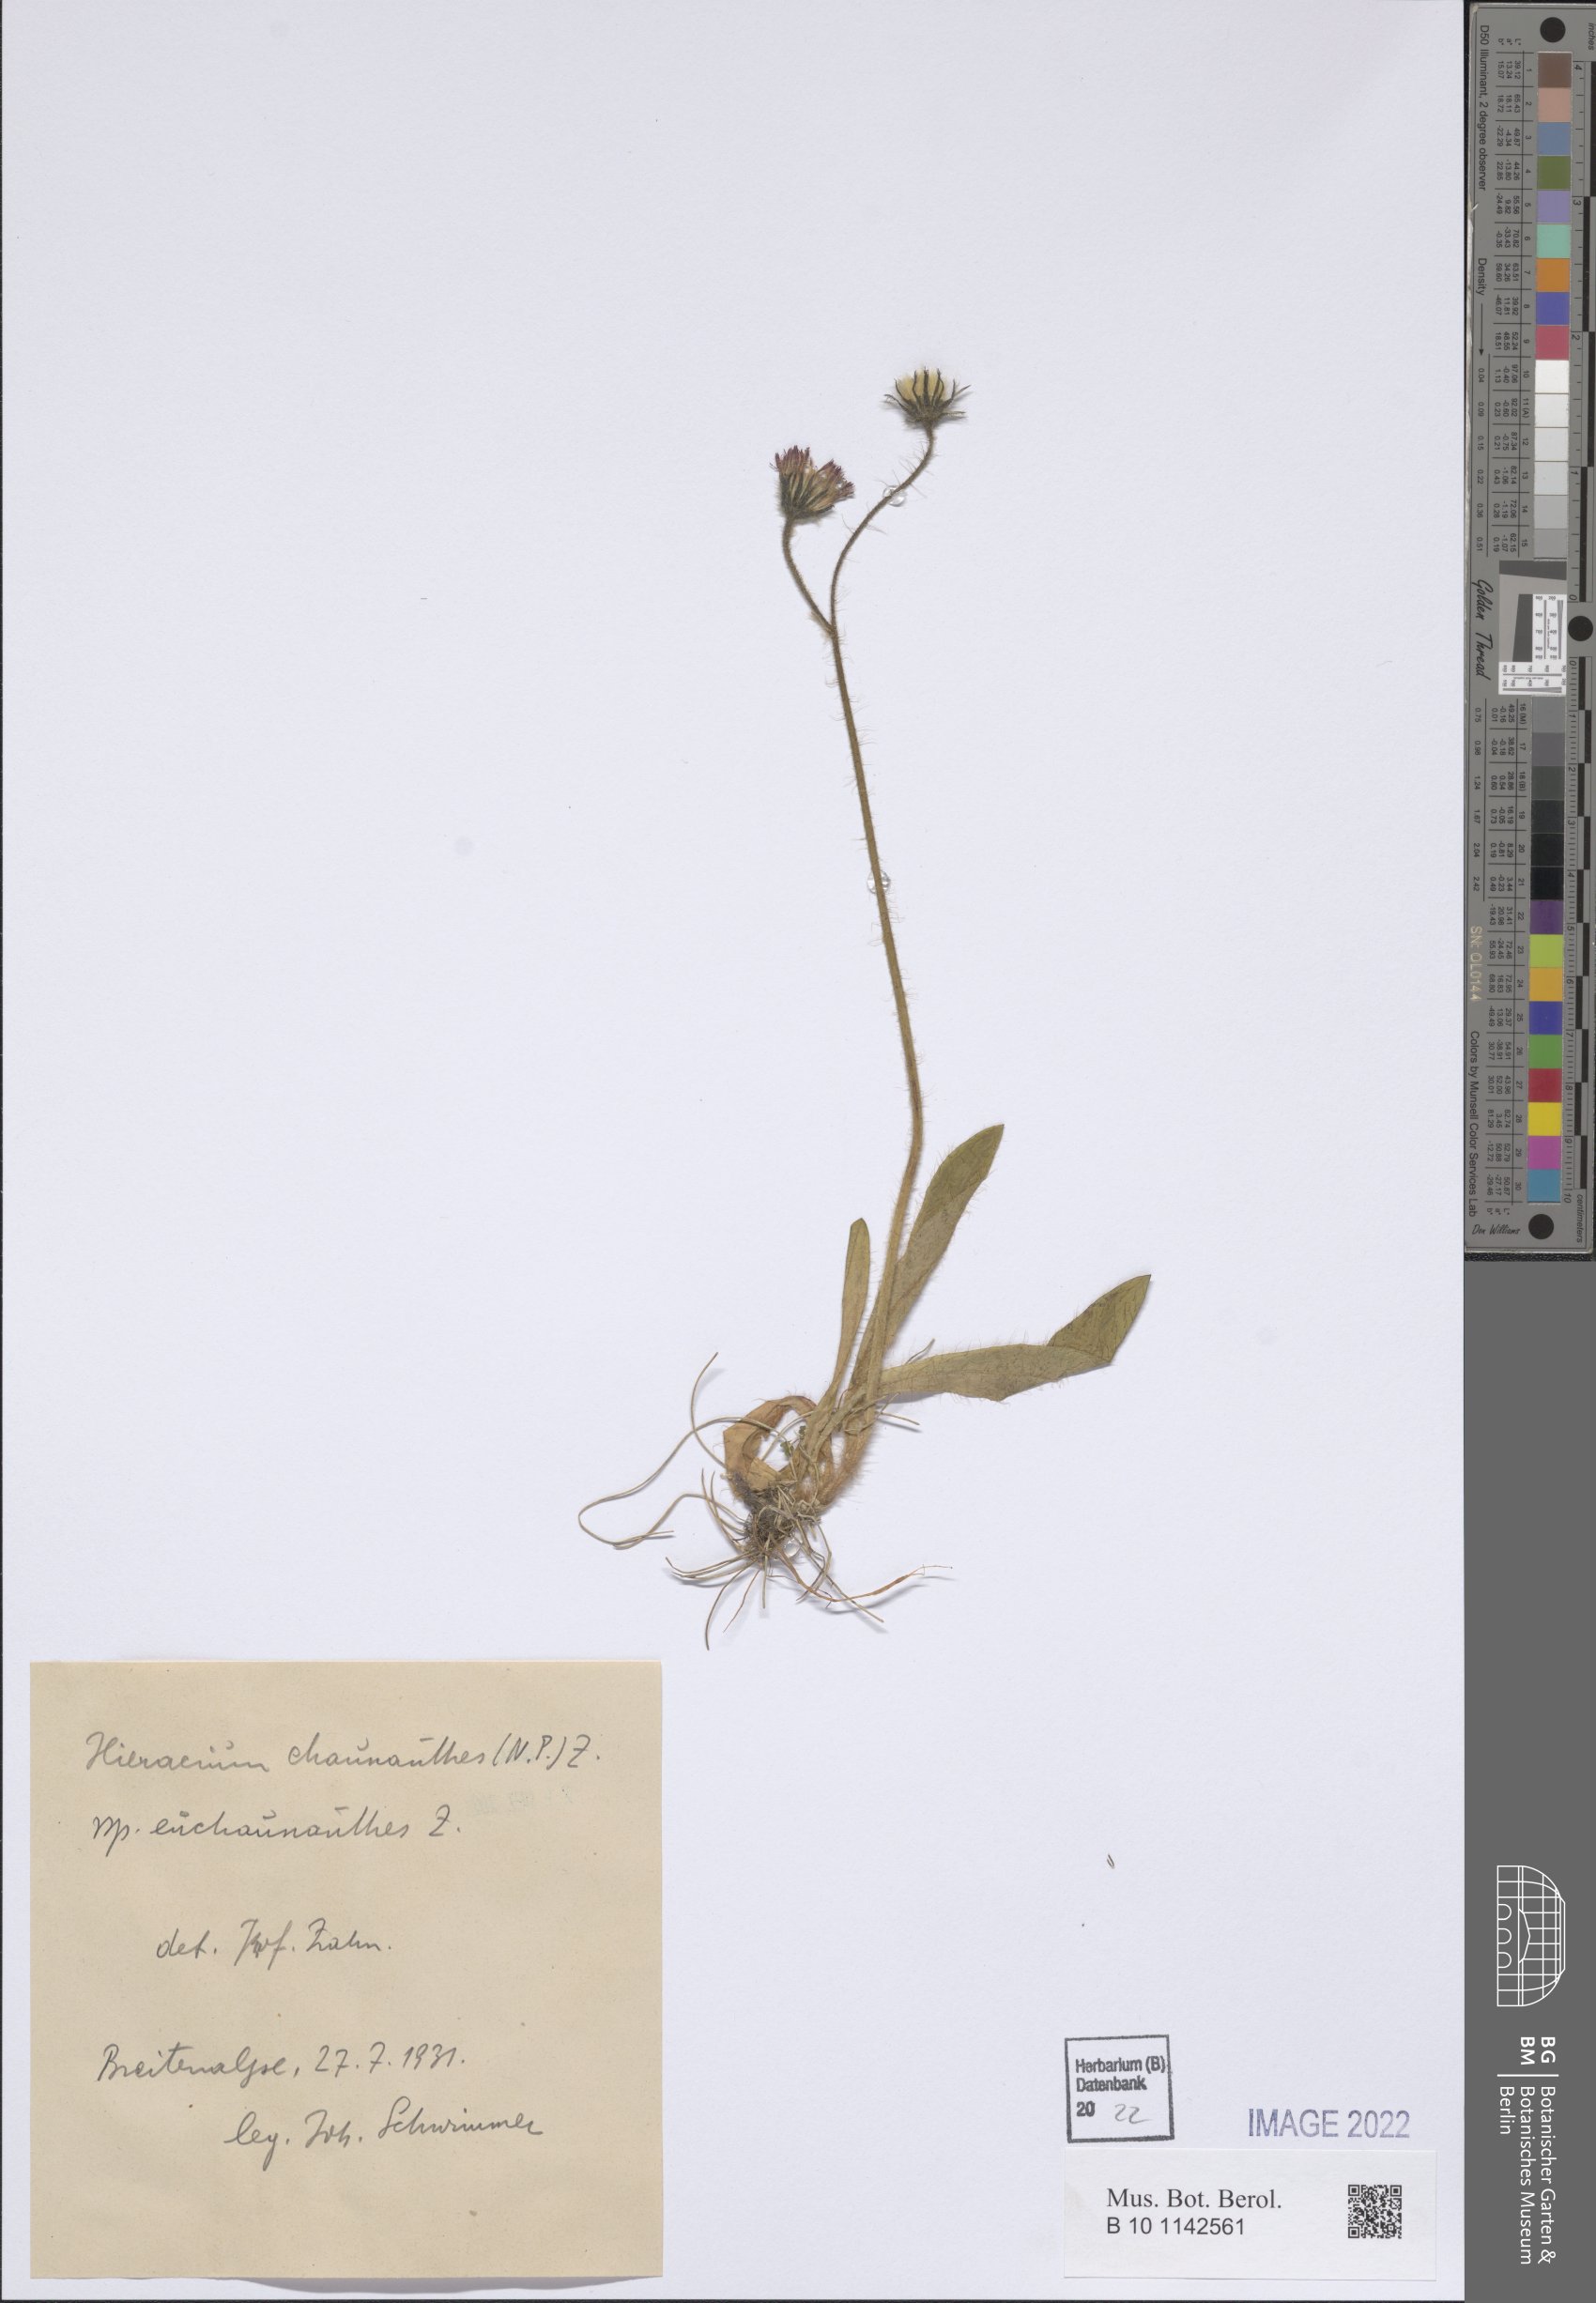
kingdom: Plantae
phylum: Tracheophyta
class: Magnoliopsida
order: Asterales
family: Asteraceae
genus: Pilosella
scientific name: Pilosella rubra
